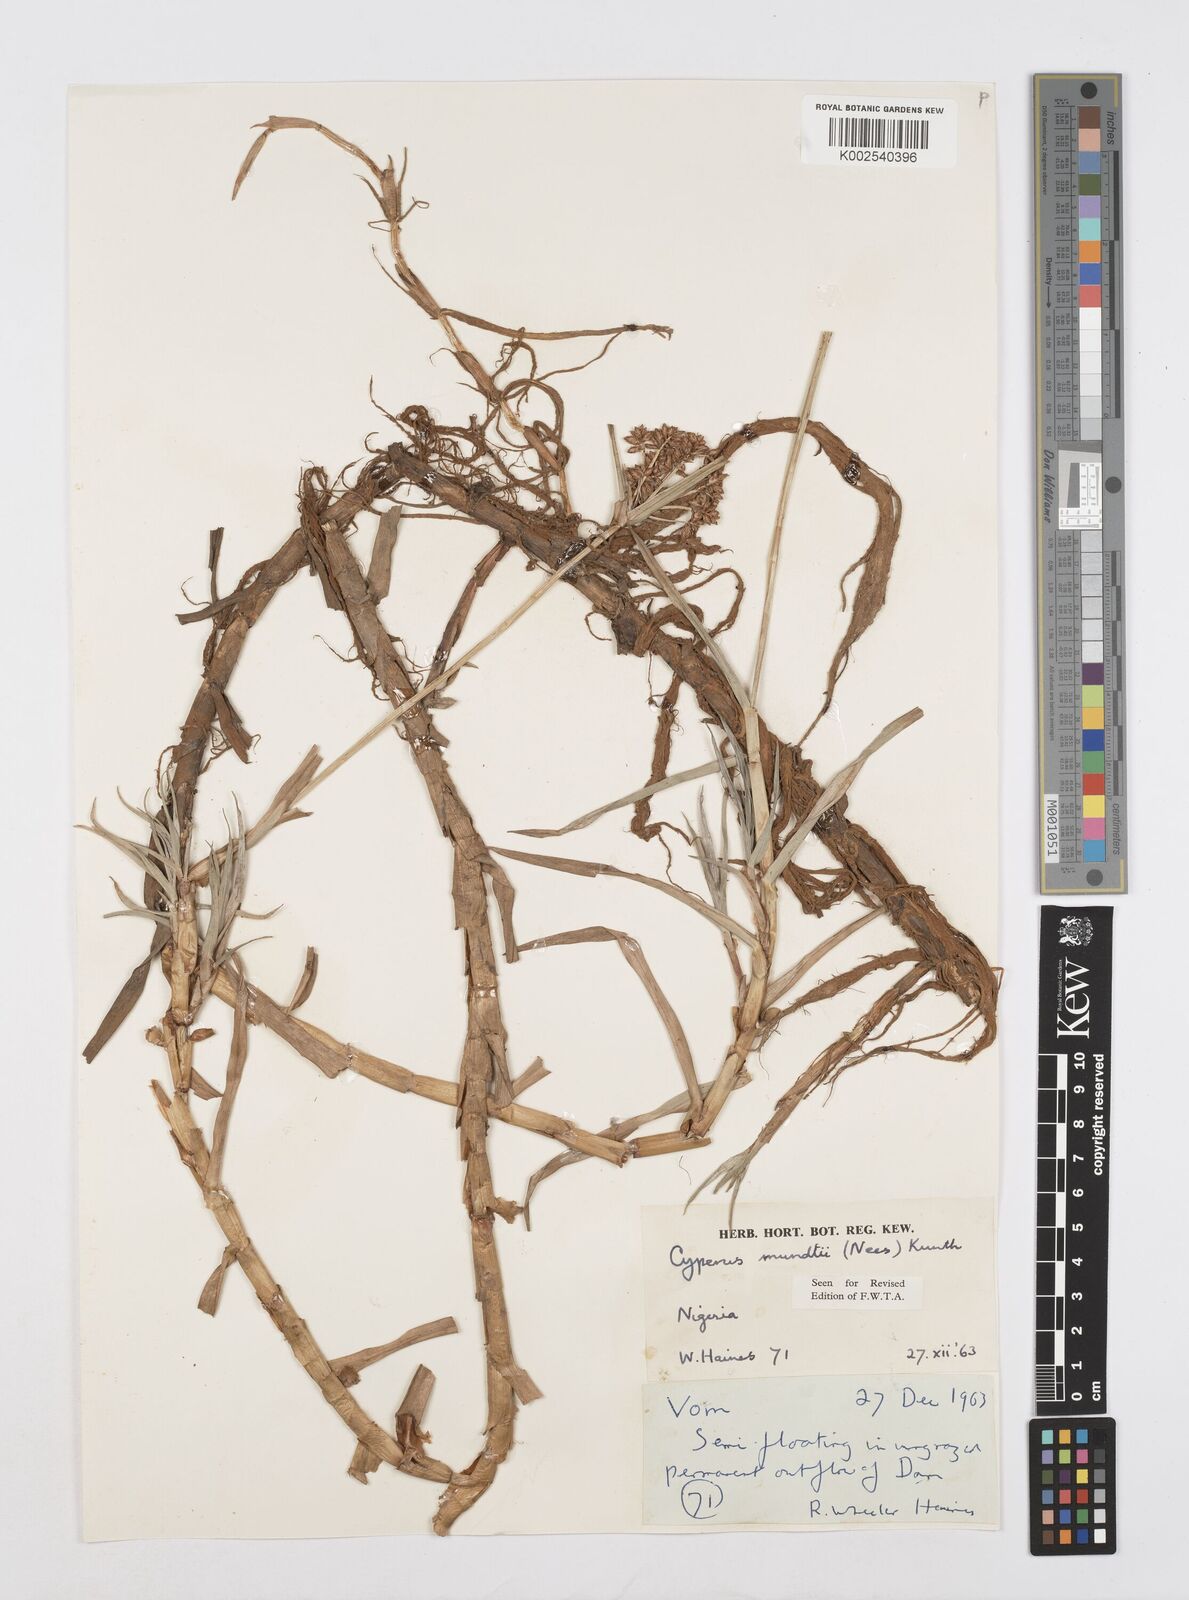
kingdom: Plantae
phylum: Tracheophyta
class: Liliopsida
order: Poales
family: Cyperaceae
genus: Cyperus
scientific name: Cyperus mundii
